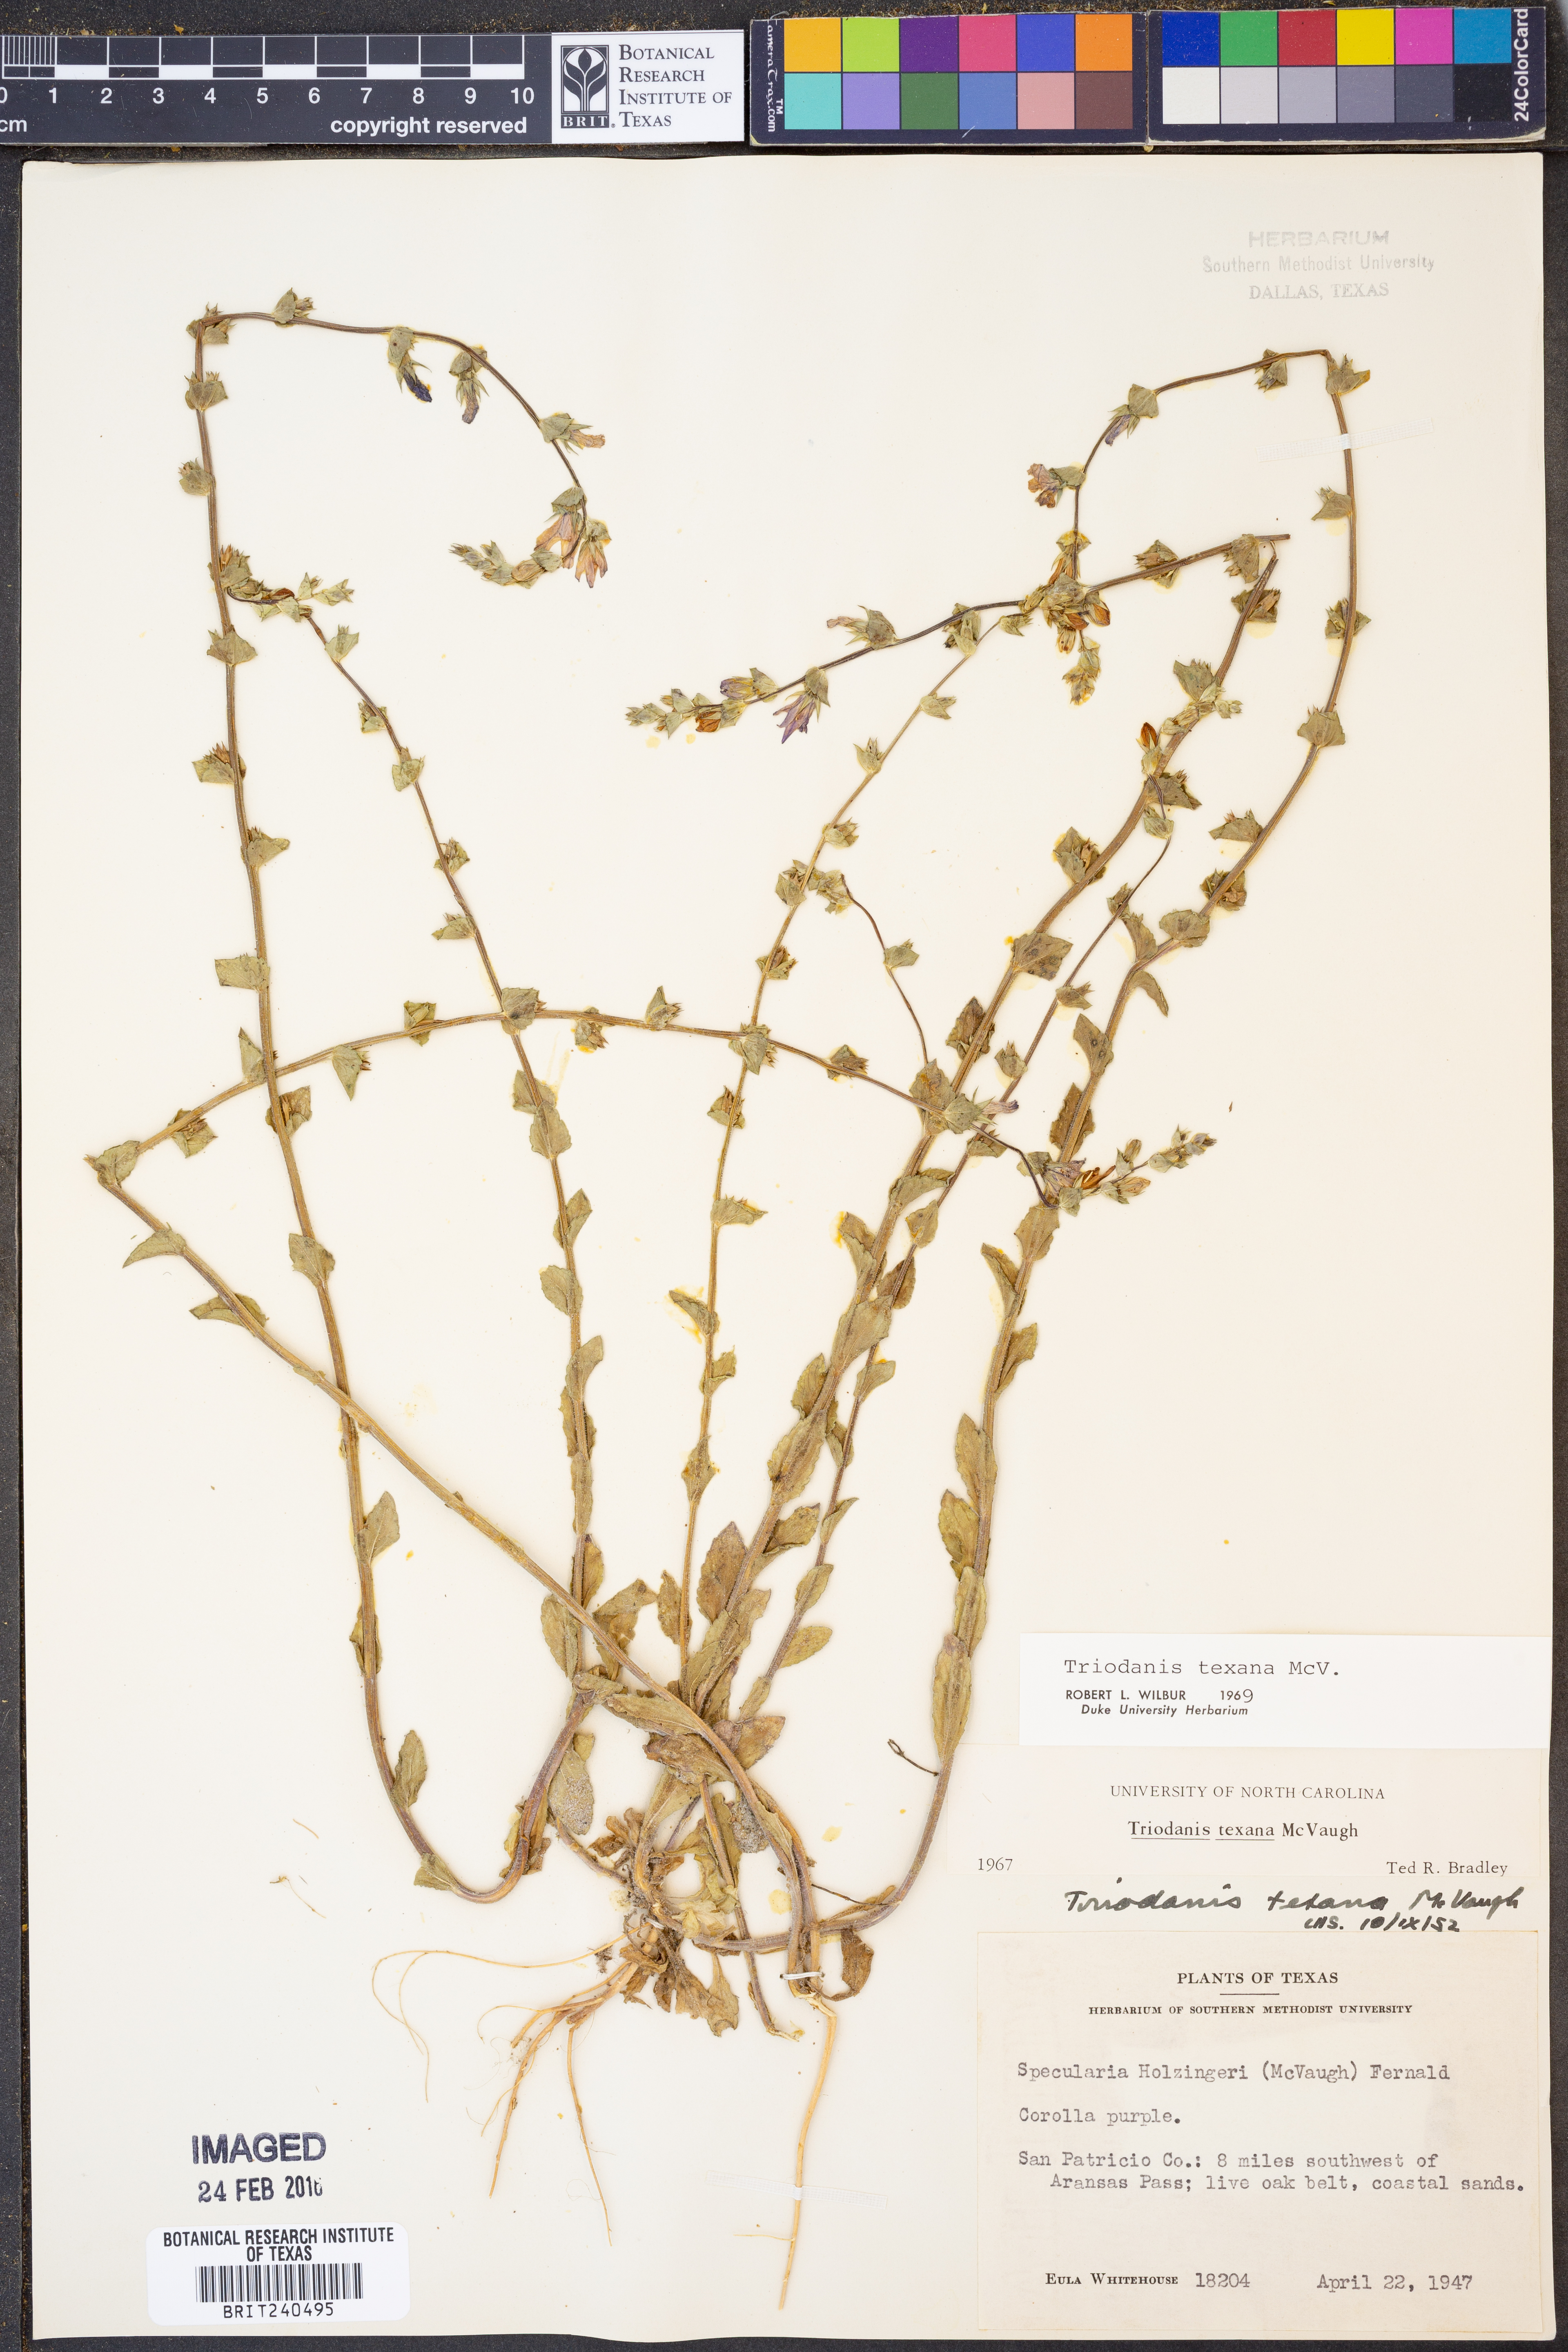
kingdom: Plantae
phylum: Tracheophyta
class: Magnoliopsida
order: Asterales
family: Campanulaceae
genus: Triodanis
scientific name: Triodanis texana
